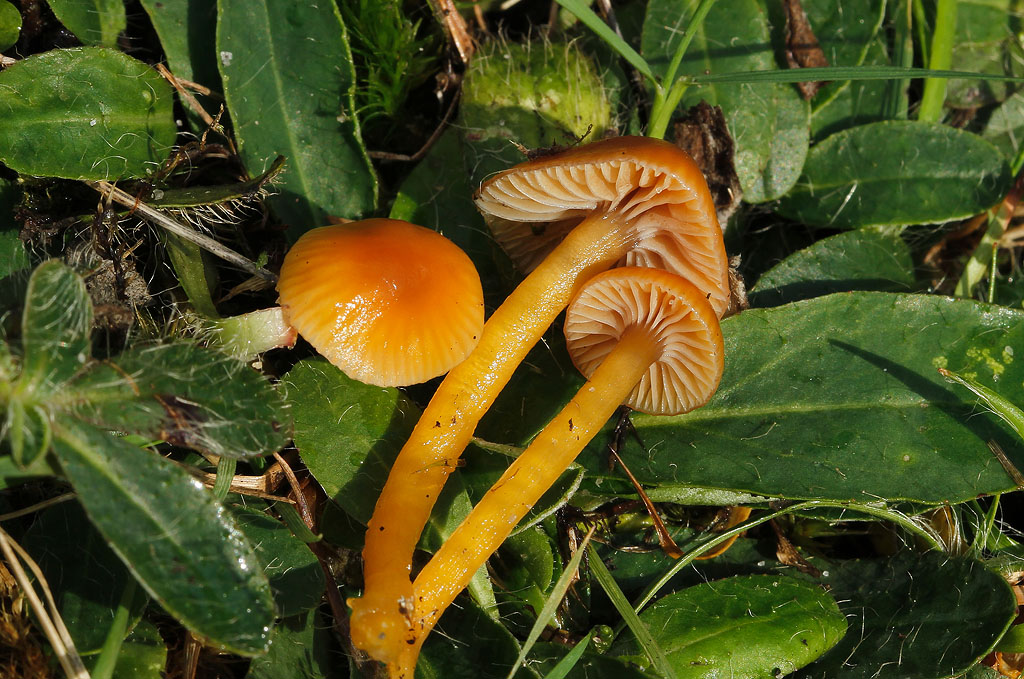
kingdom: Fungi
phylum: Basidiomycota
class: Agaricomycetes
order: Agaricales
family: Hygrophoraceae
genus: Gliophorus
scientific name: Gliophorus laetus
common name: brusk-vokshat
